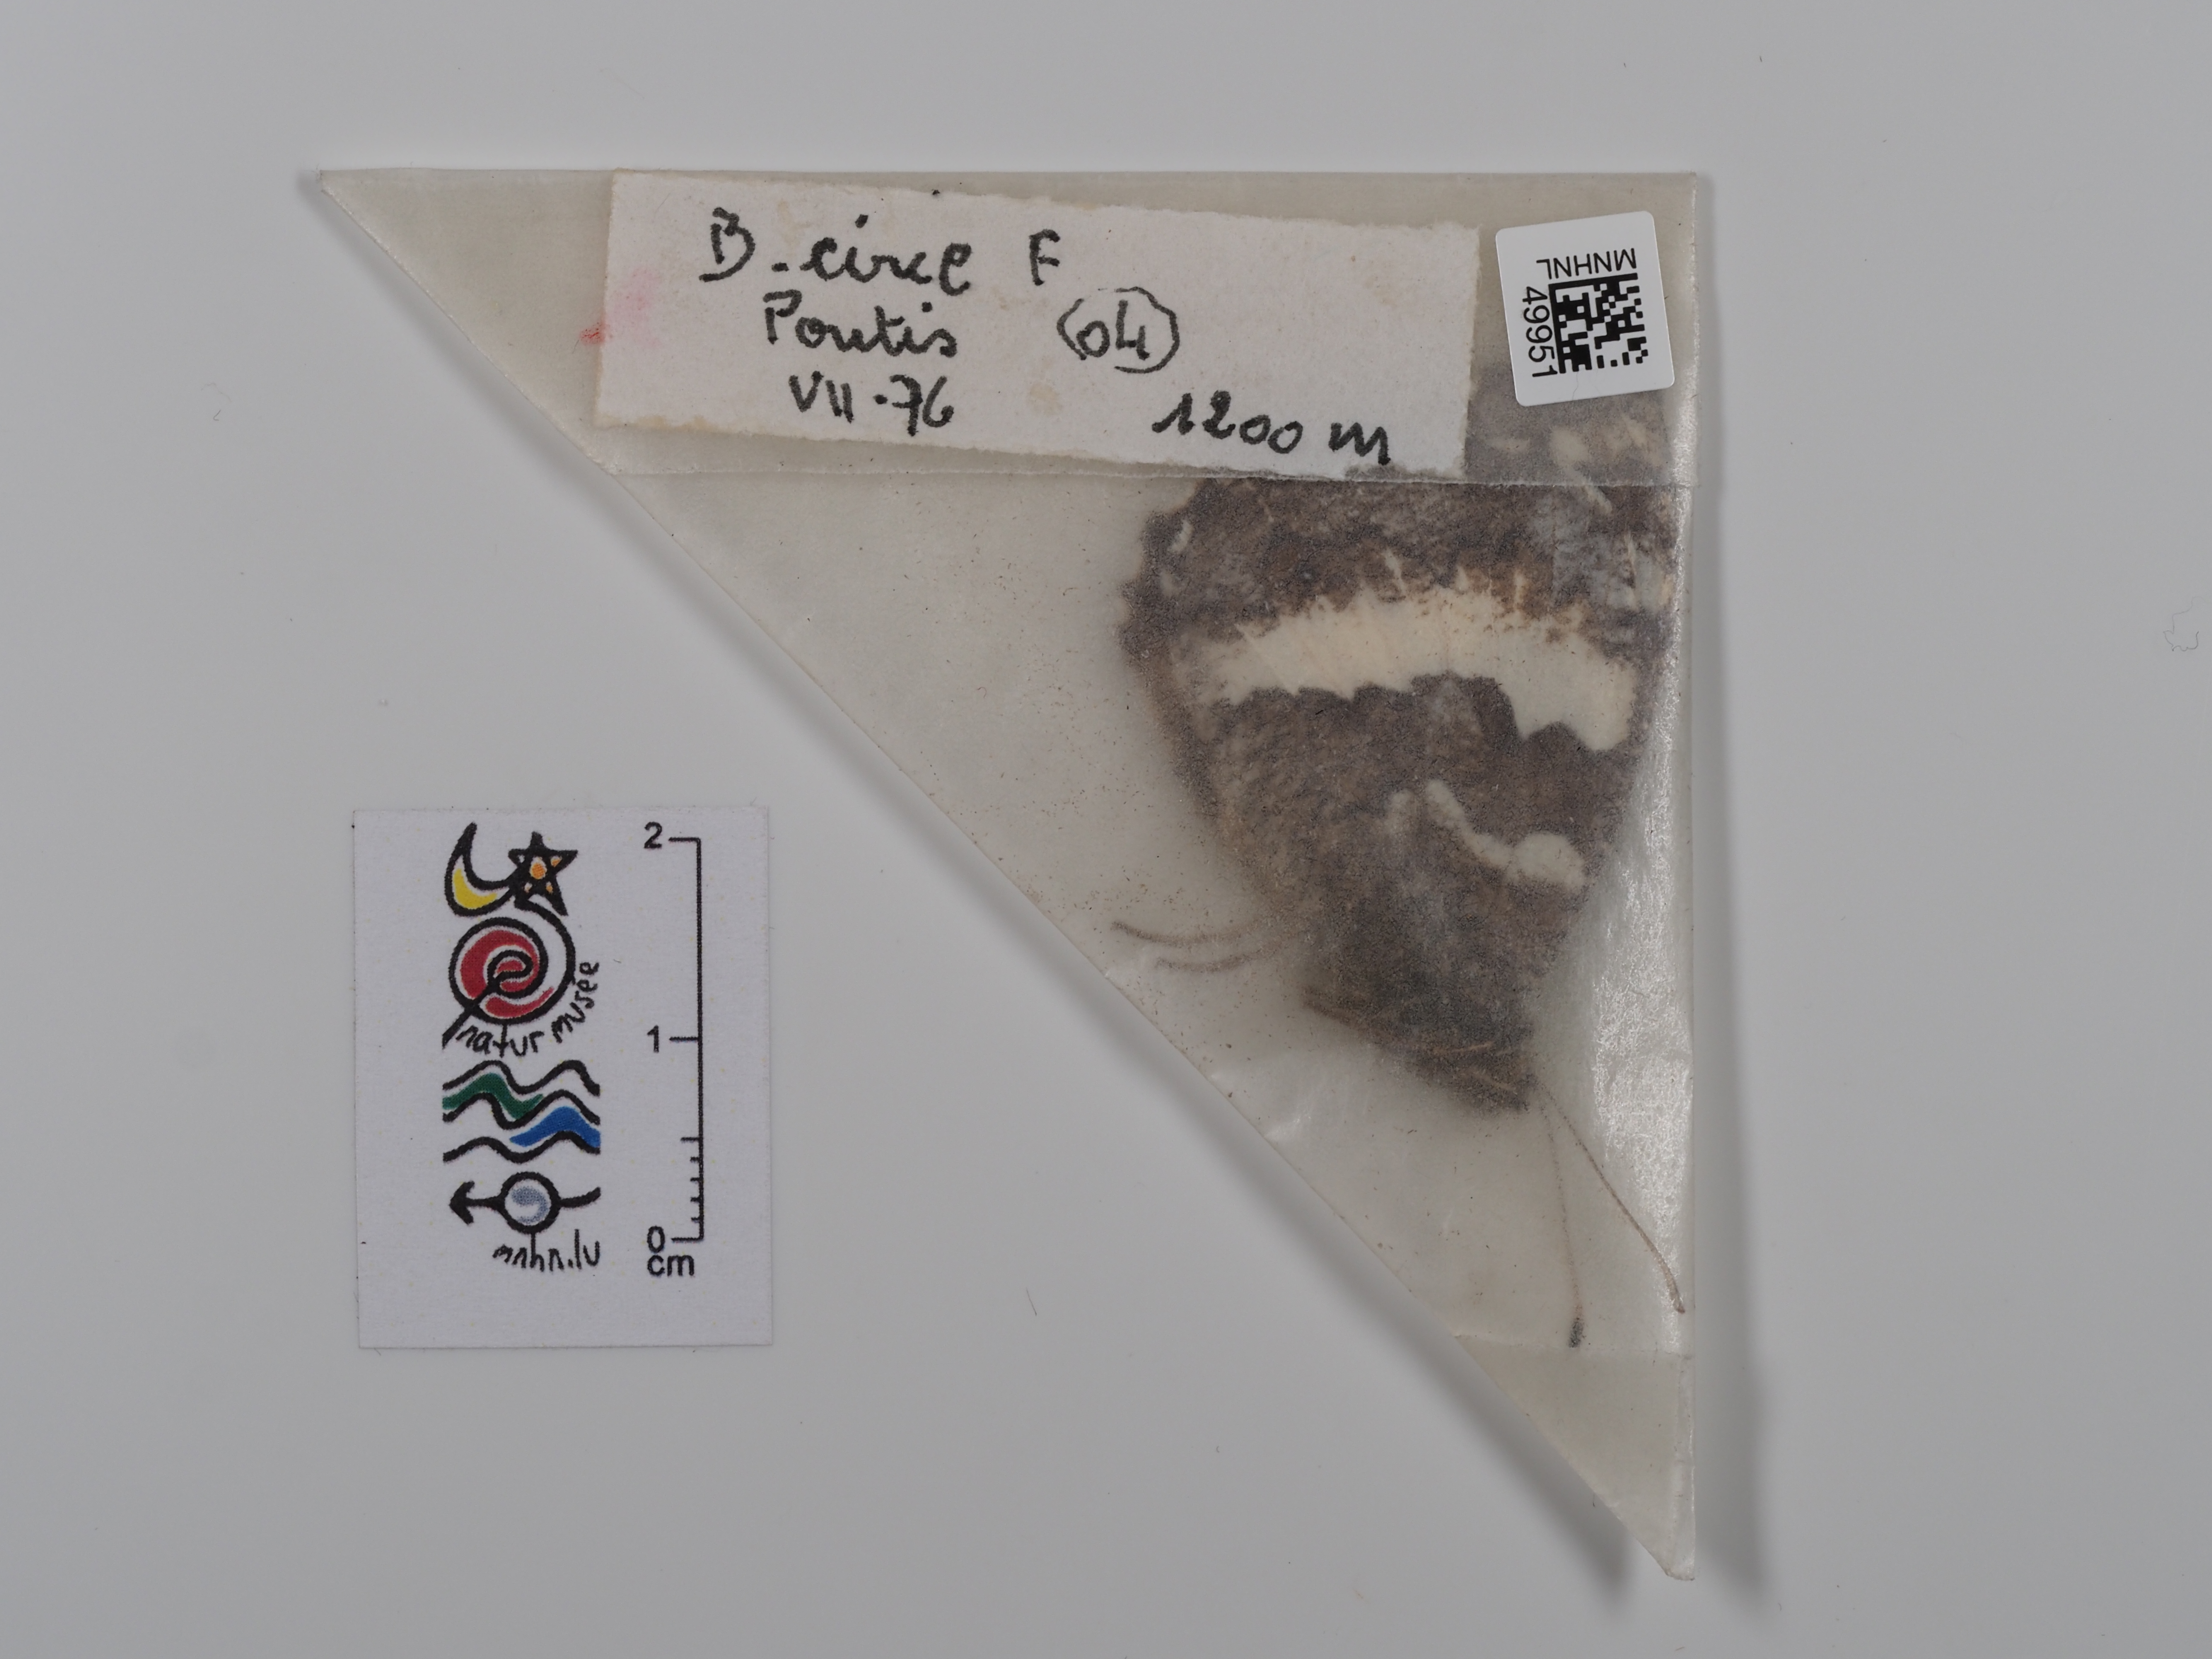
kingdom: Animalia
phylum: Arthropoda
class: Insecta
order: Lepidoptera
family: Lycaenidae
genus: Loweia
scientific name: Loweia tityrus
